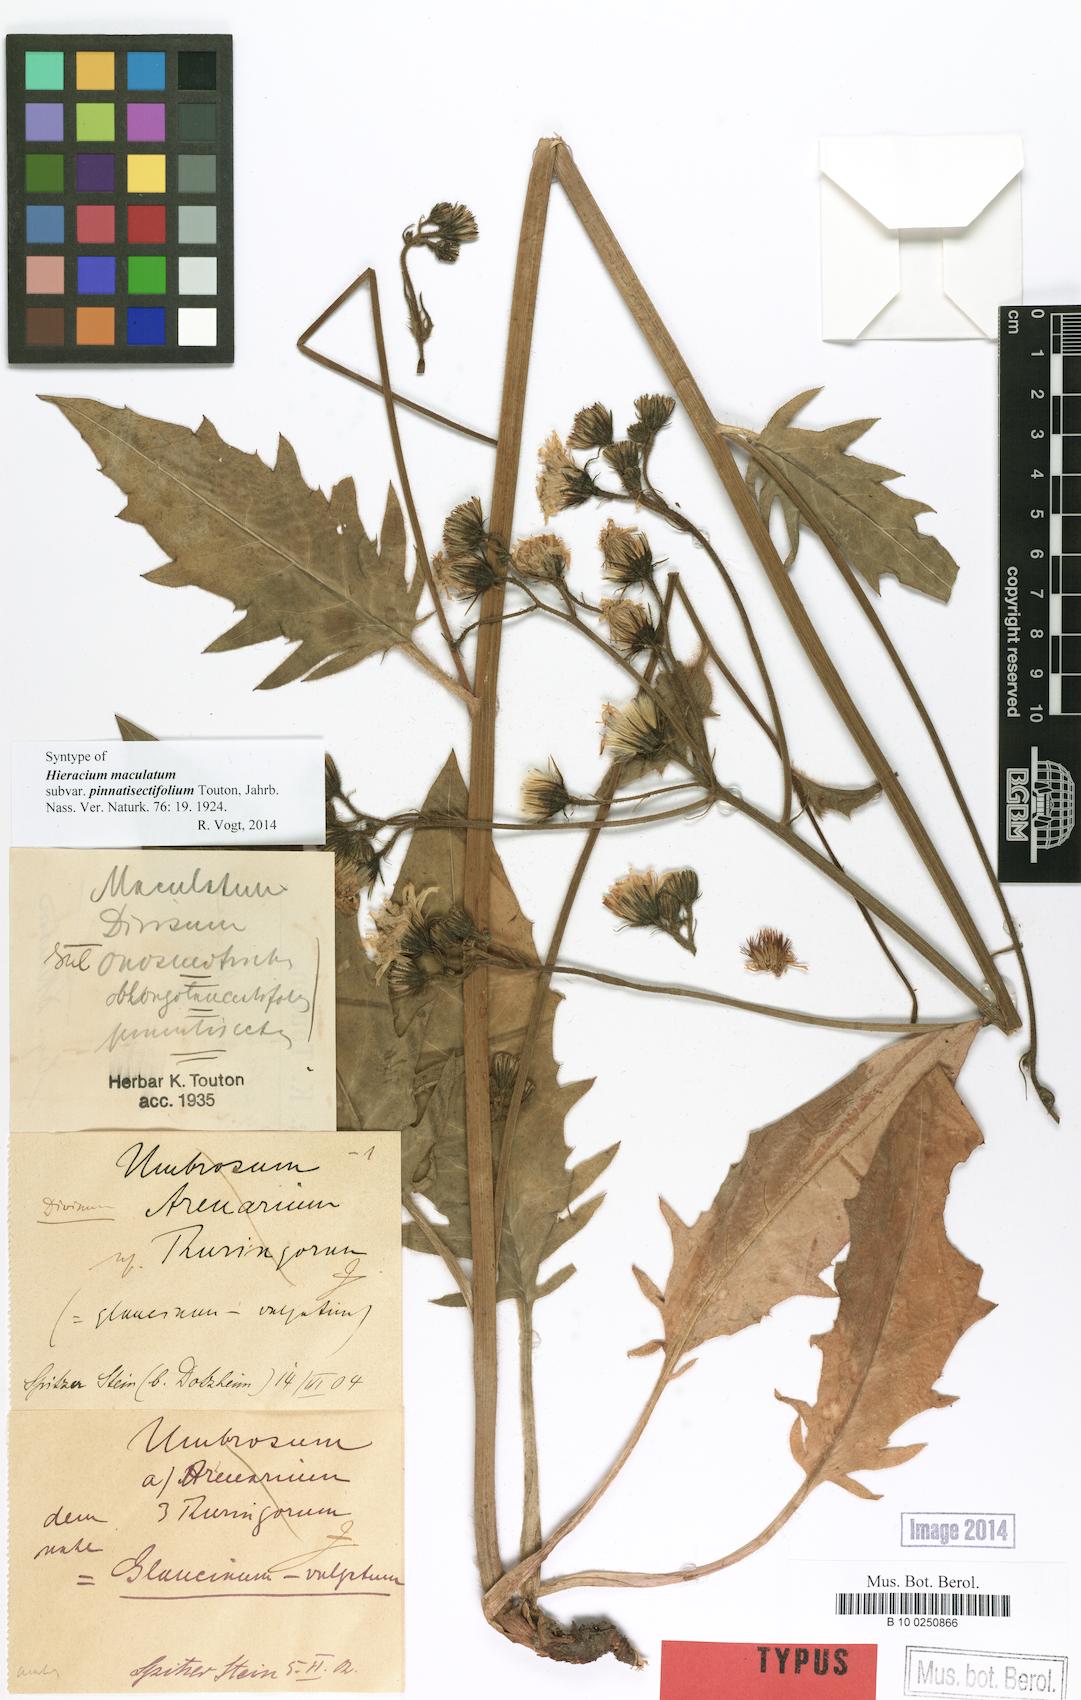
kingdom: Plantae
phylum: Tracheophyta
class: Magnoliopsida
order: Asterales
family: Asteraceae
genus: Hieracium
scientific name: Hieracium maculatum
